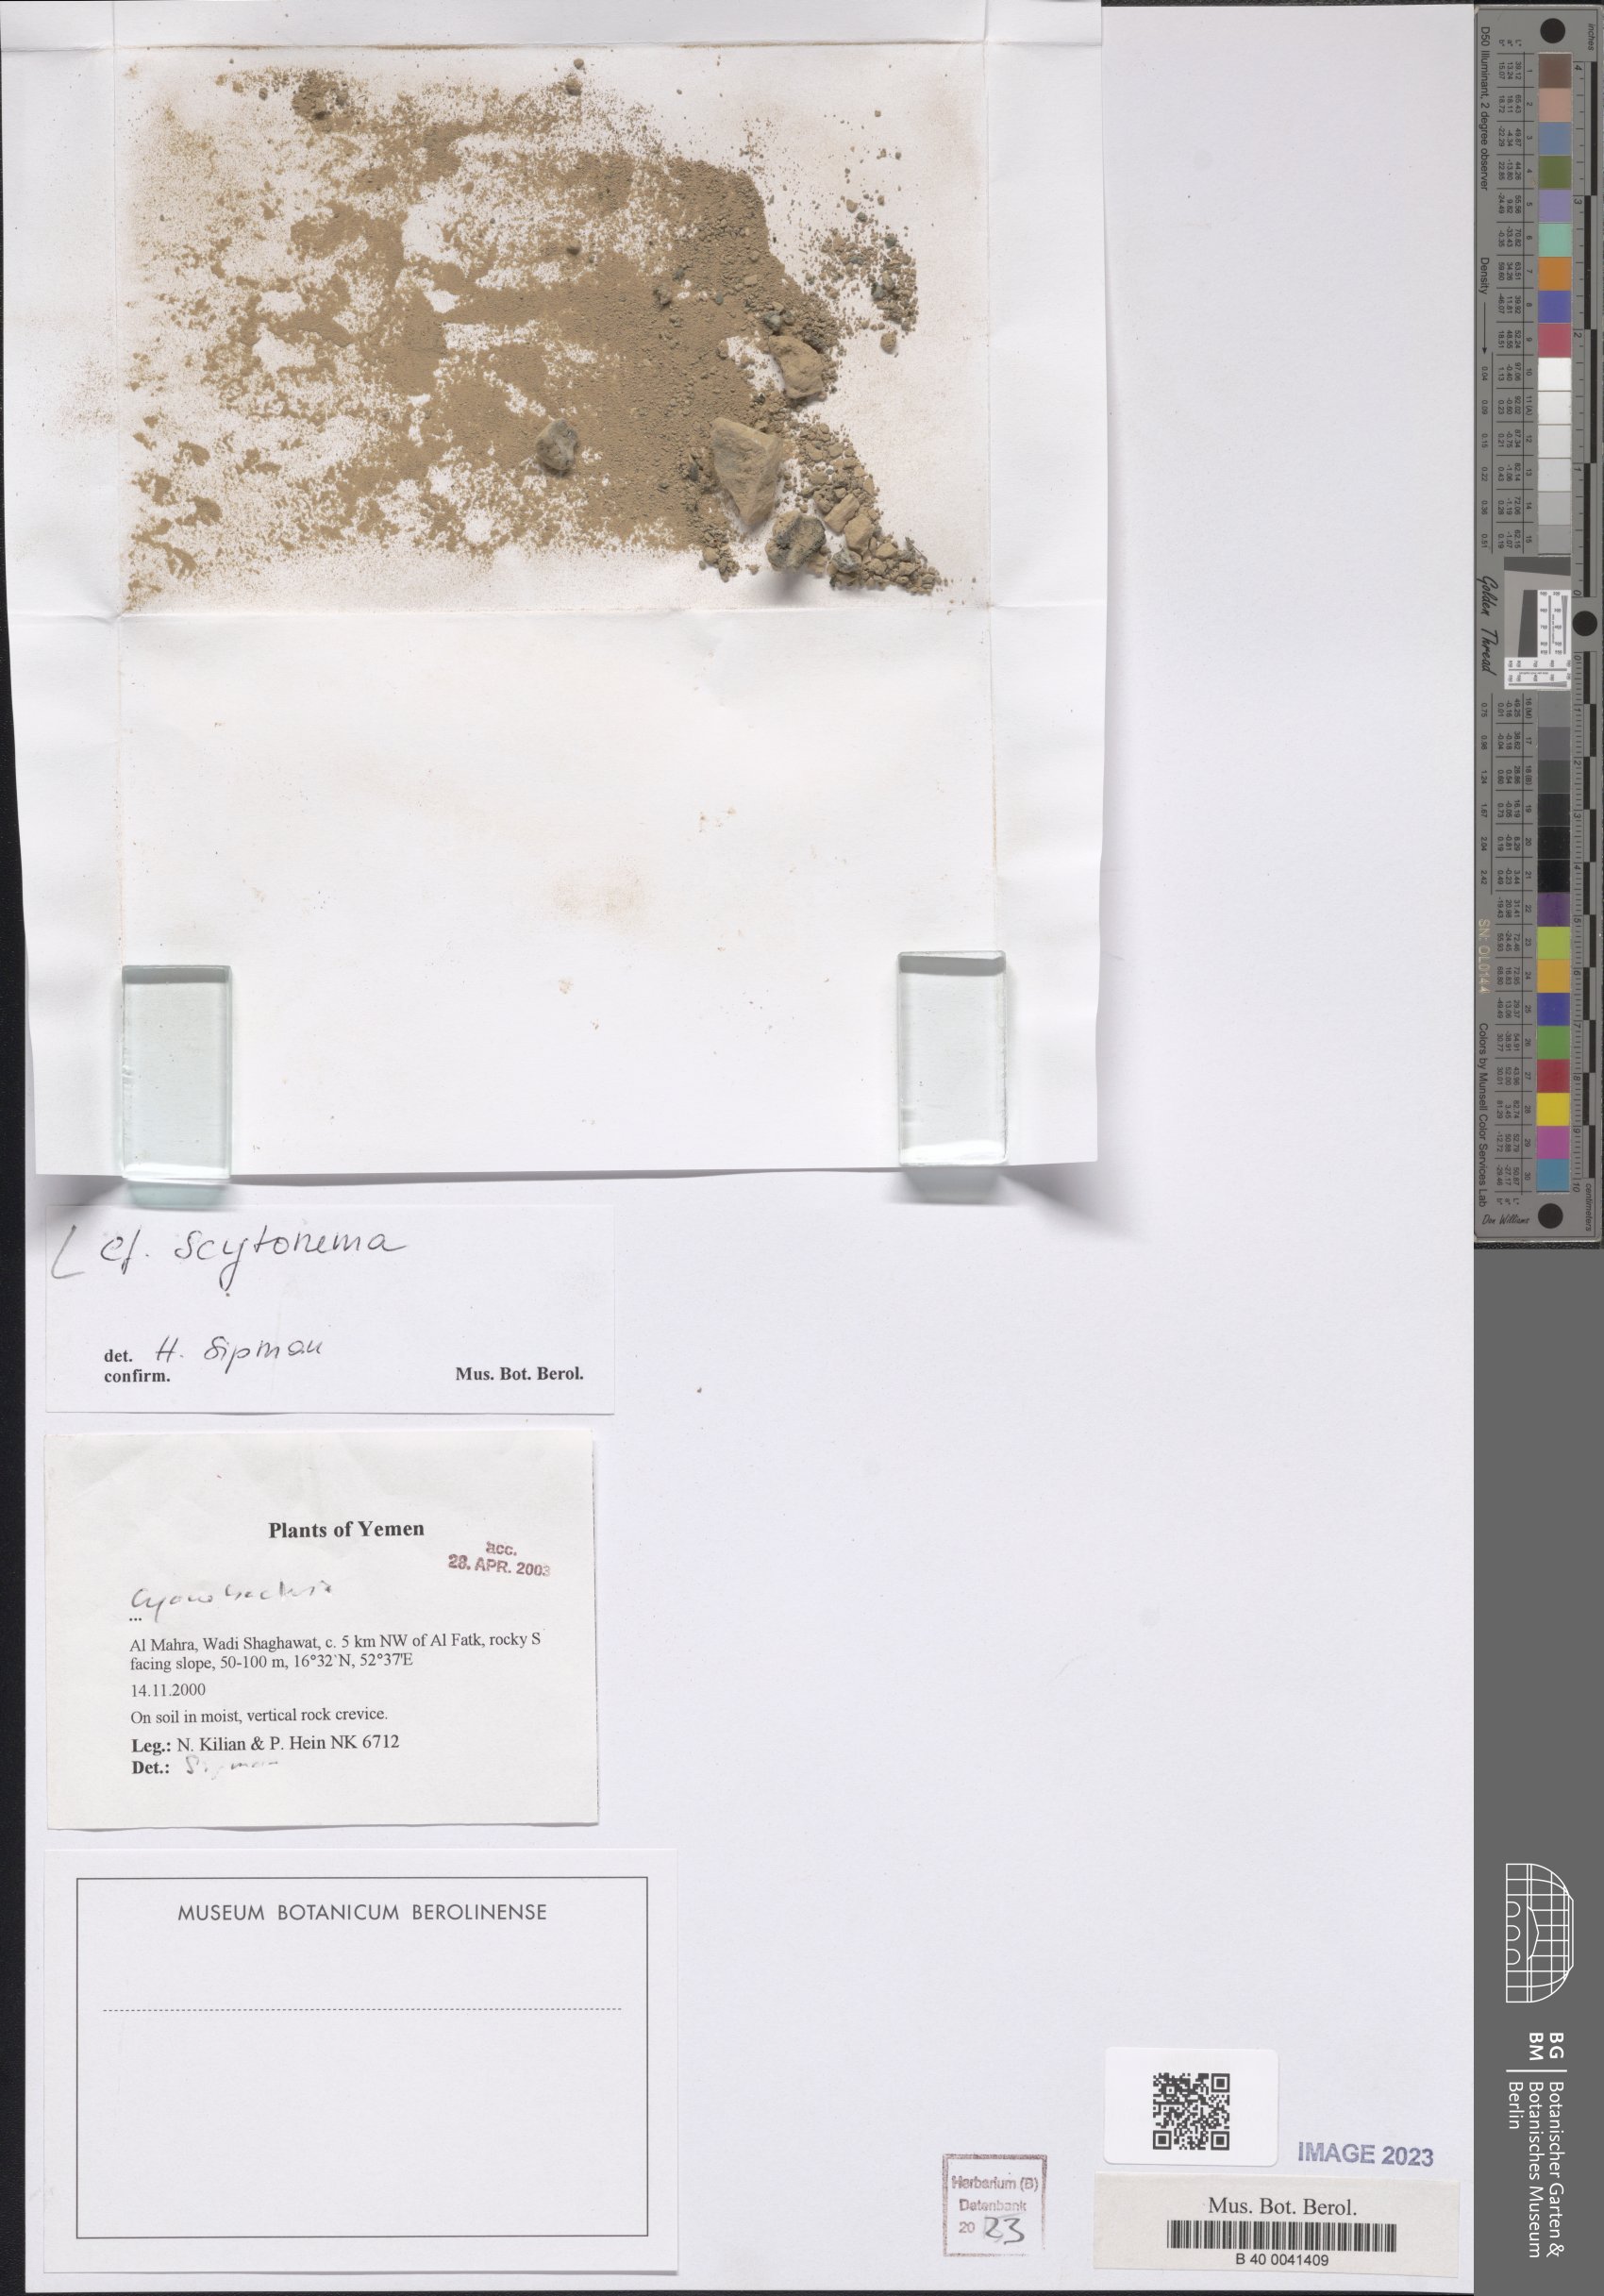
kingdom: Bacteria
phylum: Cyanobacteria
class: Cyanobacteriia
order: Cyanobacteriales
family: Scytonemataceae
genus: Scytonema
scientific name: Scytonema
